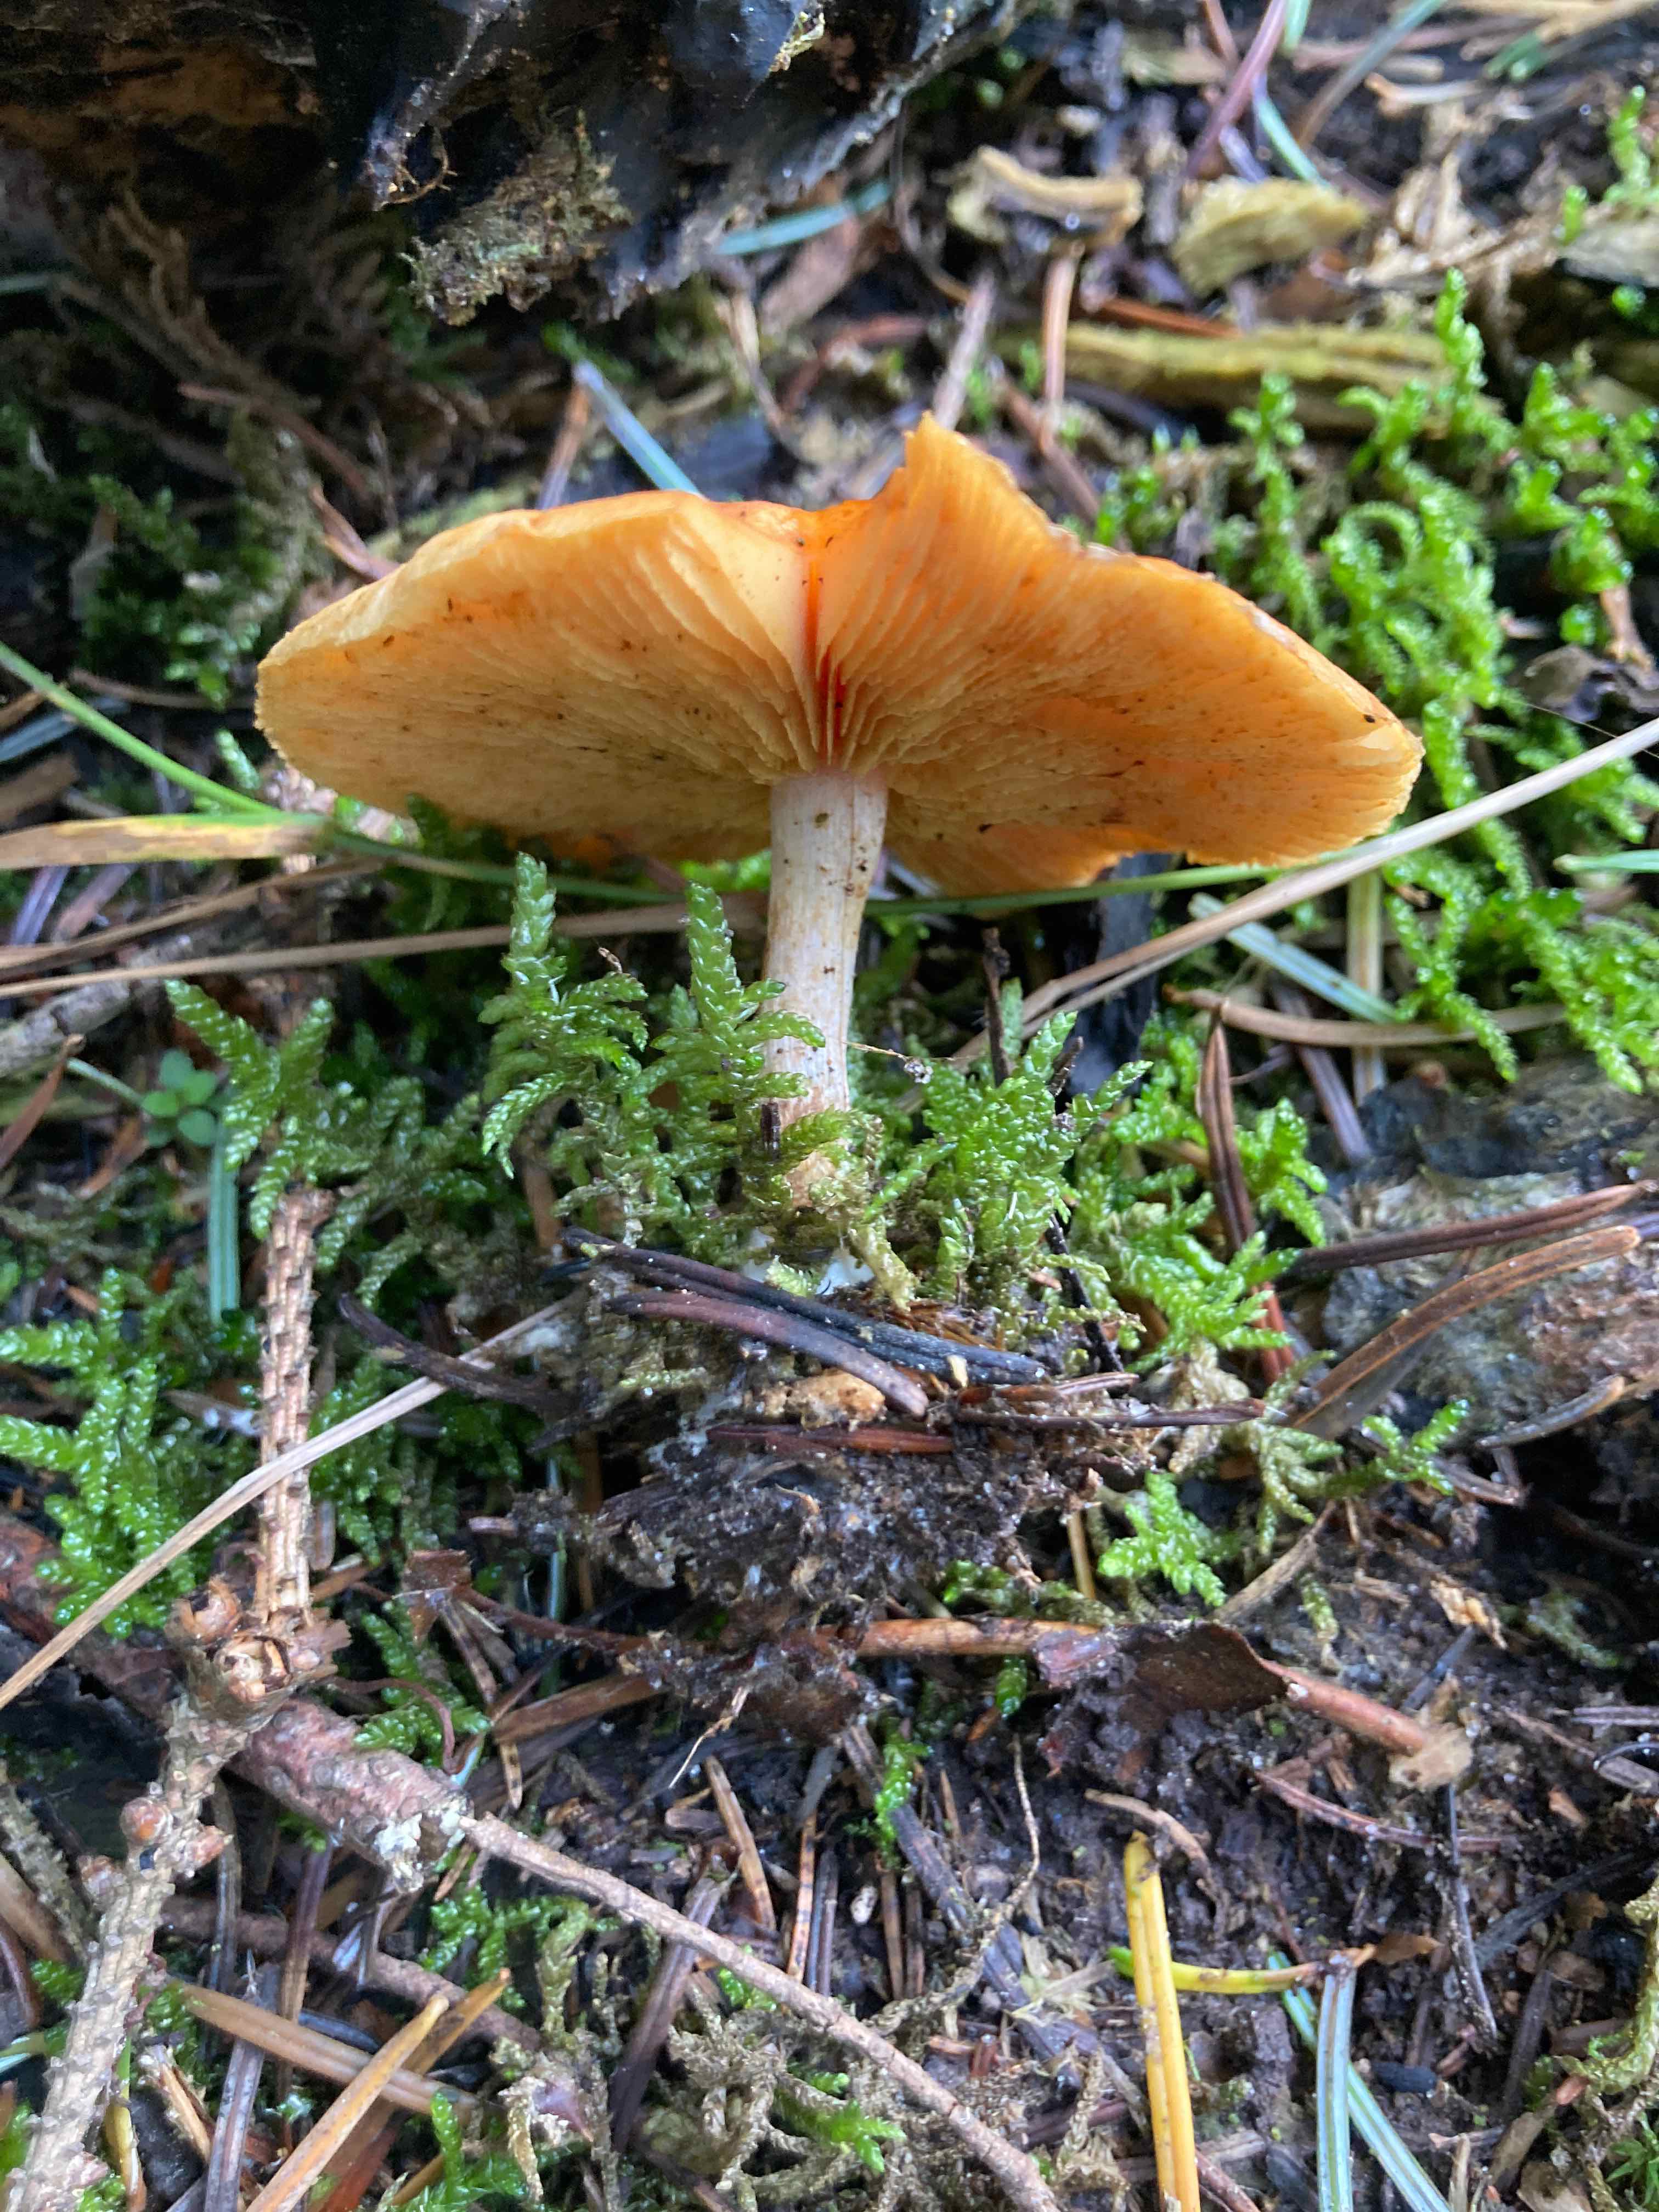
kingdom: Fungi
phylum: Basidiomycota
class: Agaricomycetes
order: Agaricales
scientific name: Agaricales
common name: champignonordenen
